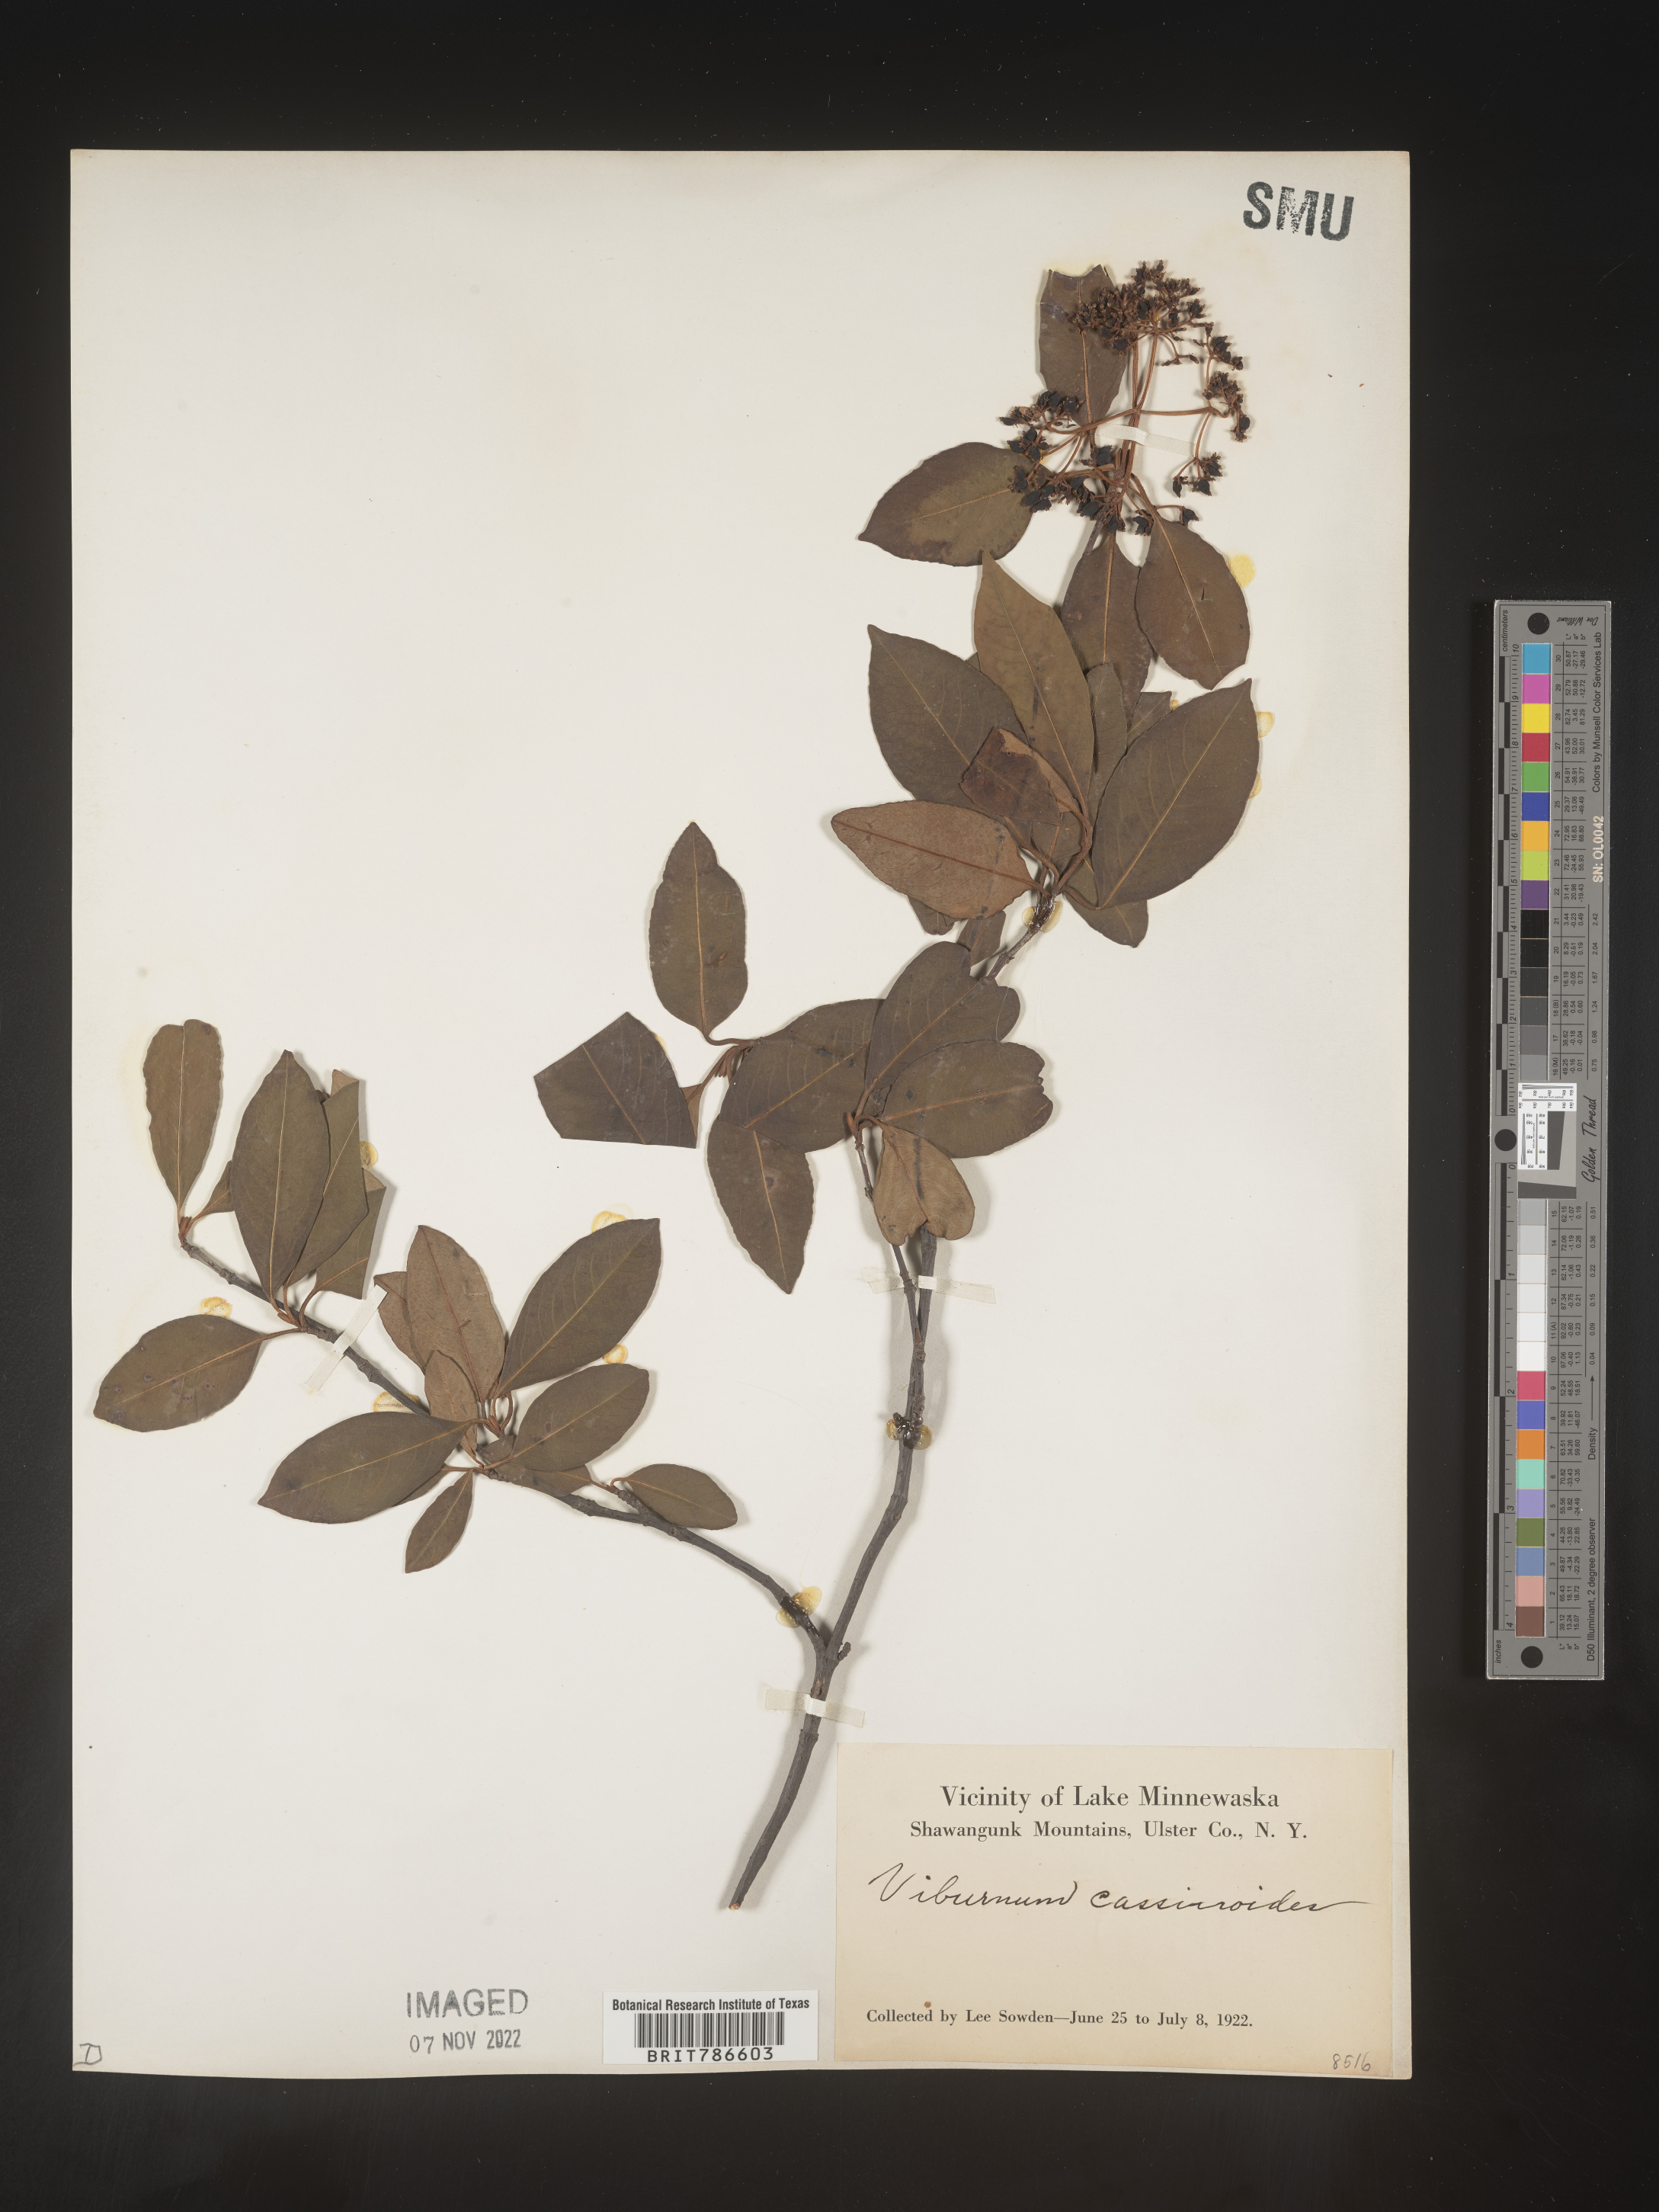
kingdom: Plantae
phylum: Tracheophyta
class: Magnoliopsida
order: Dipsacales
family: Viburnaceae
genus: Viburnum
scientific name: Viburnum cassinoides
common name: Swamp haw
